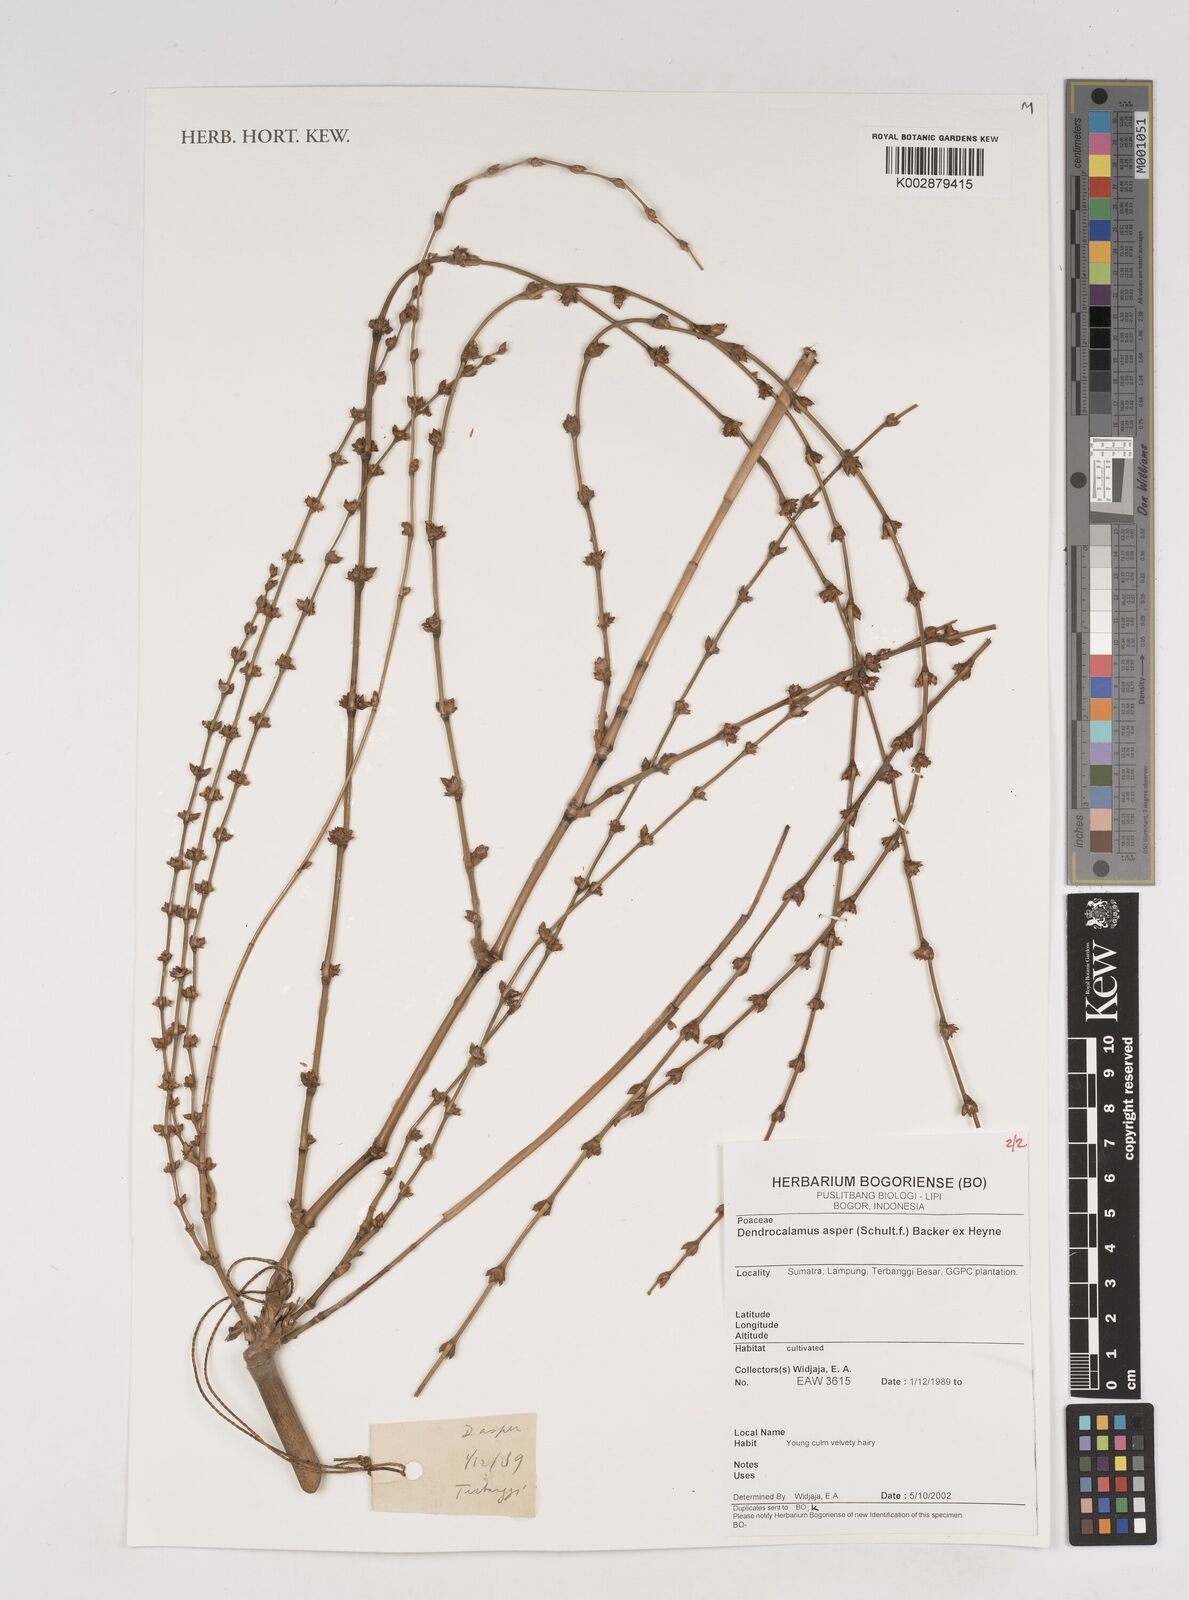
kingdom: Plantae
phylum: Tracheophyta
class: Liliopsida
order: Poales
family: Poaceae
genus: Dendrocalamus
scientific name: Dendrocalamus asper
